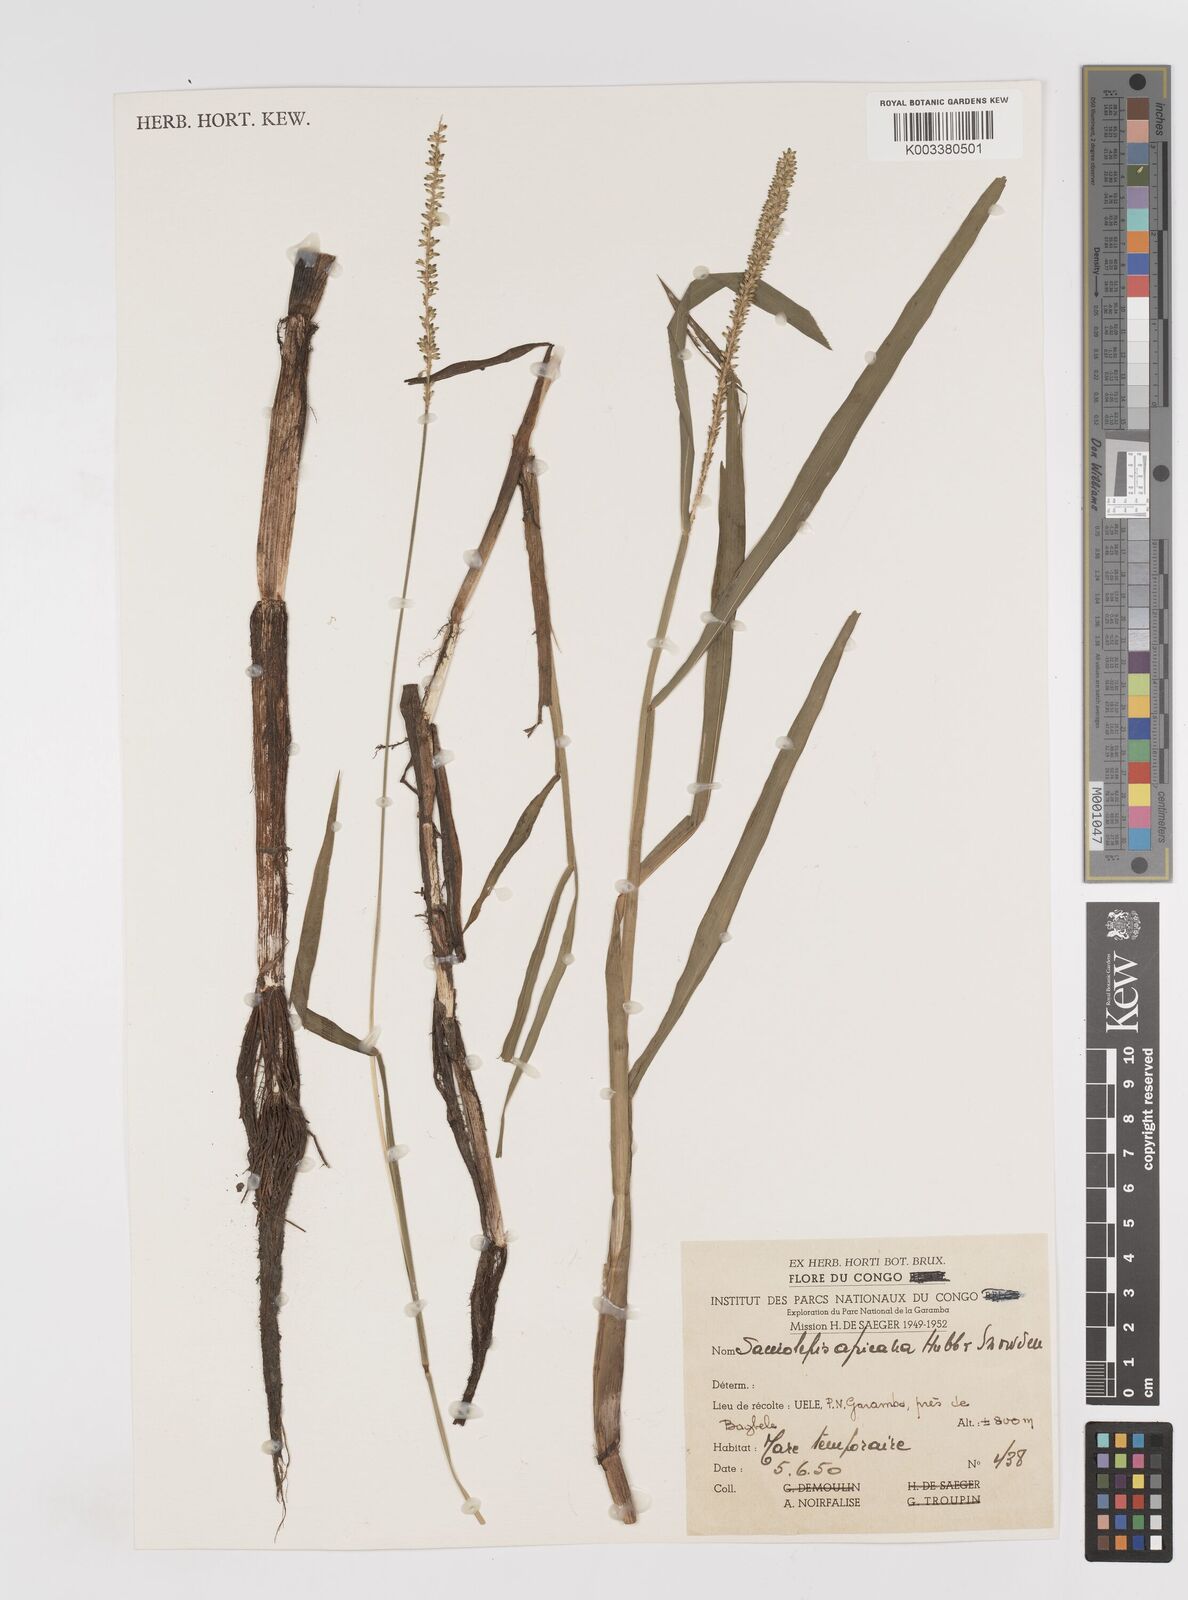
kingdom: Plantae
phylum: Tracheophyta
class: Liliopsida
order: Poales
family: Poaceae
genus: Sacciolepis
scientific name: Sacciolepis africana
